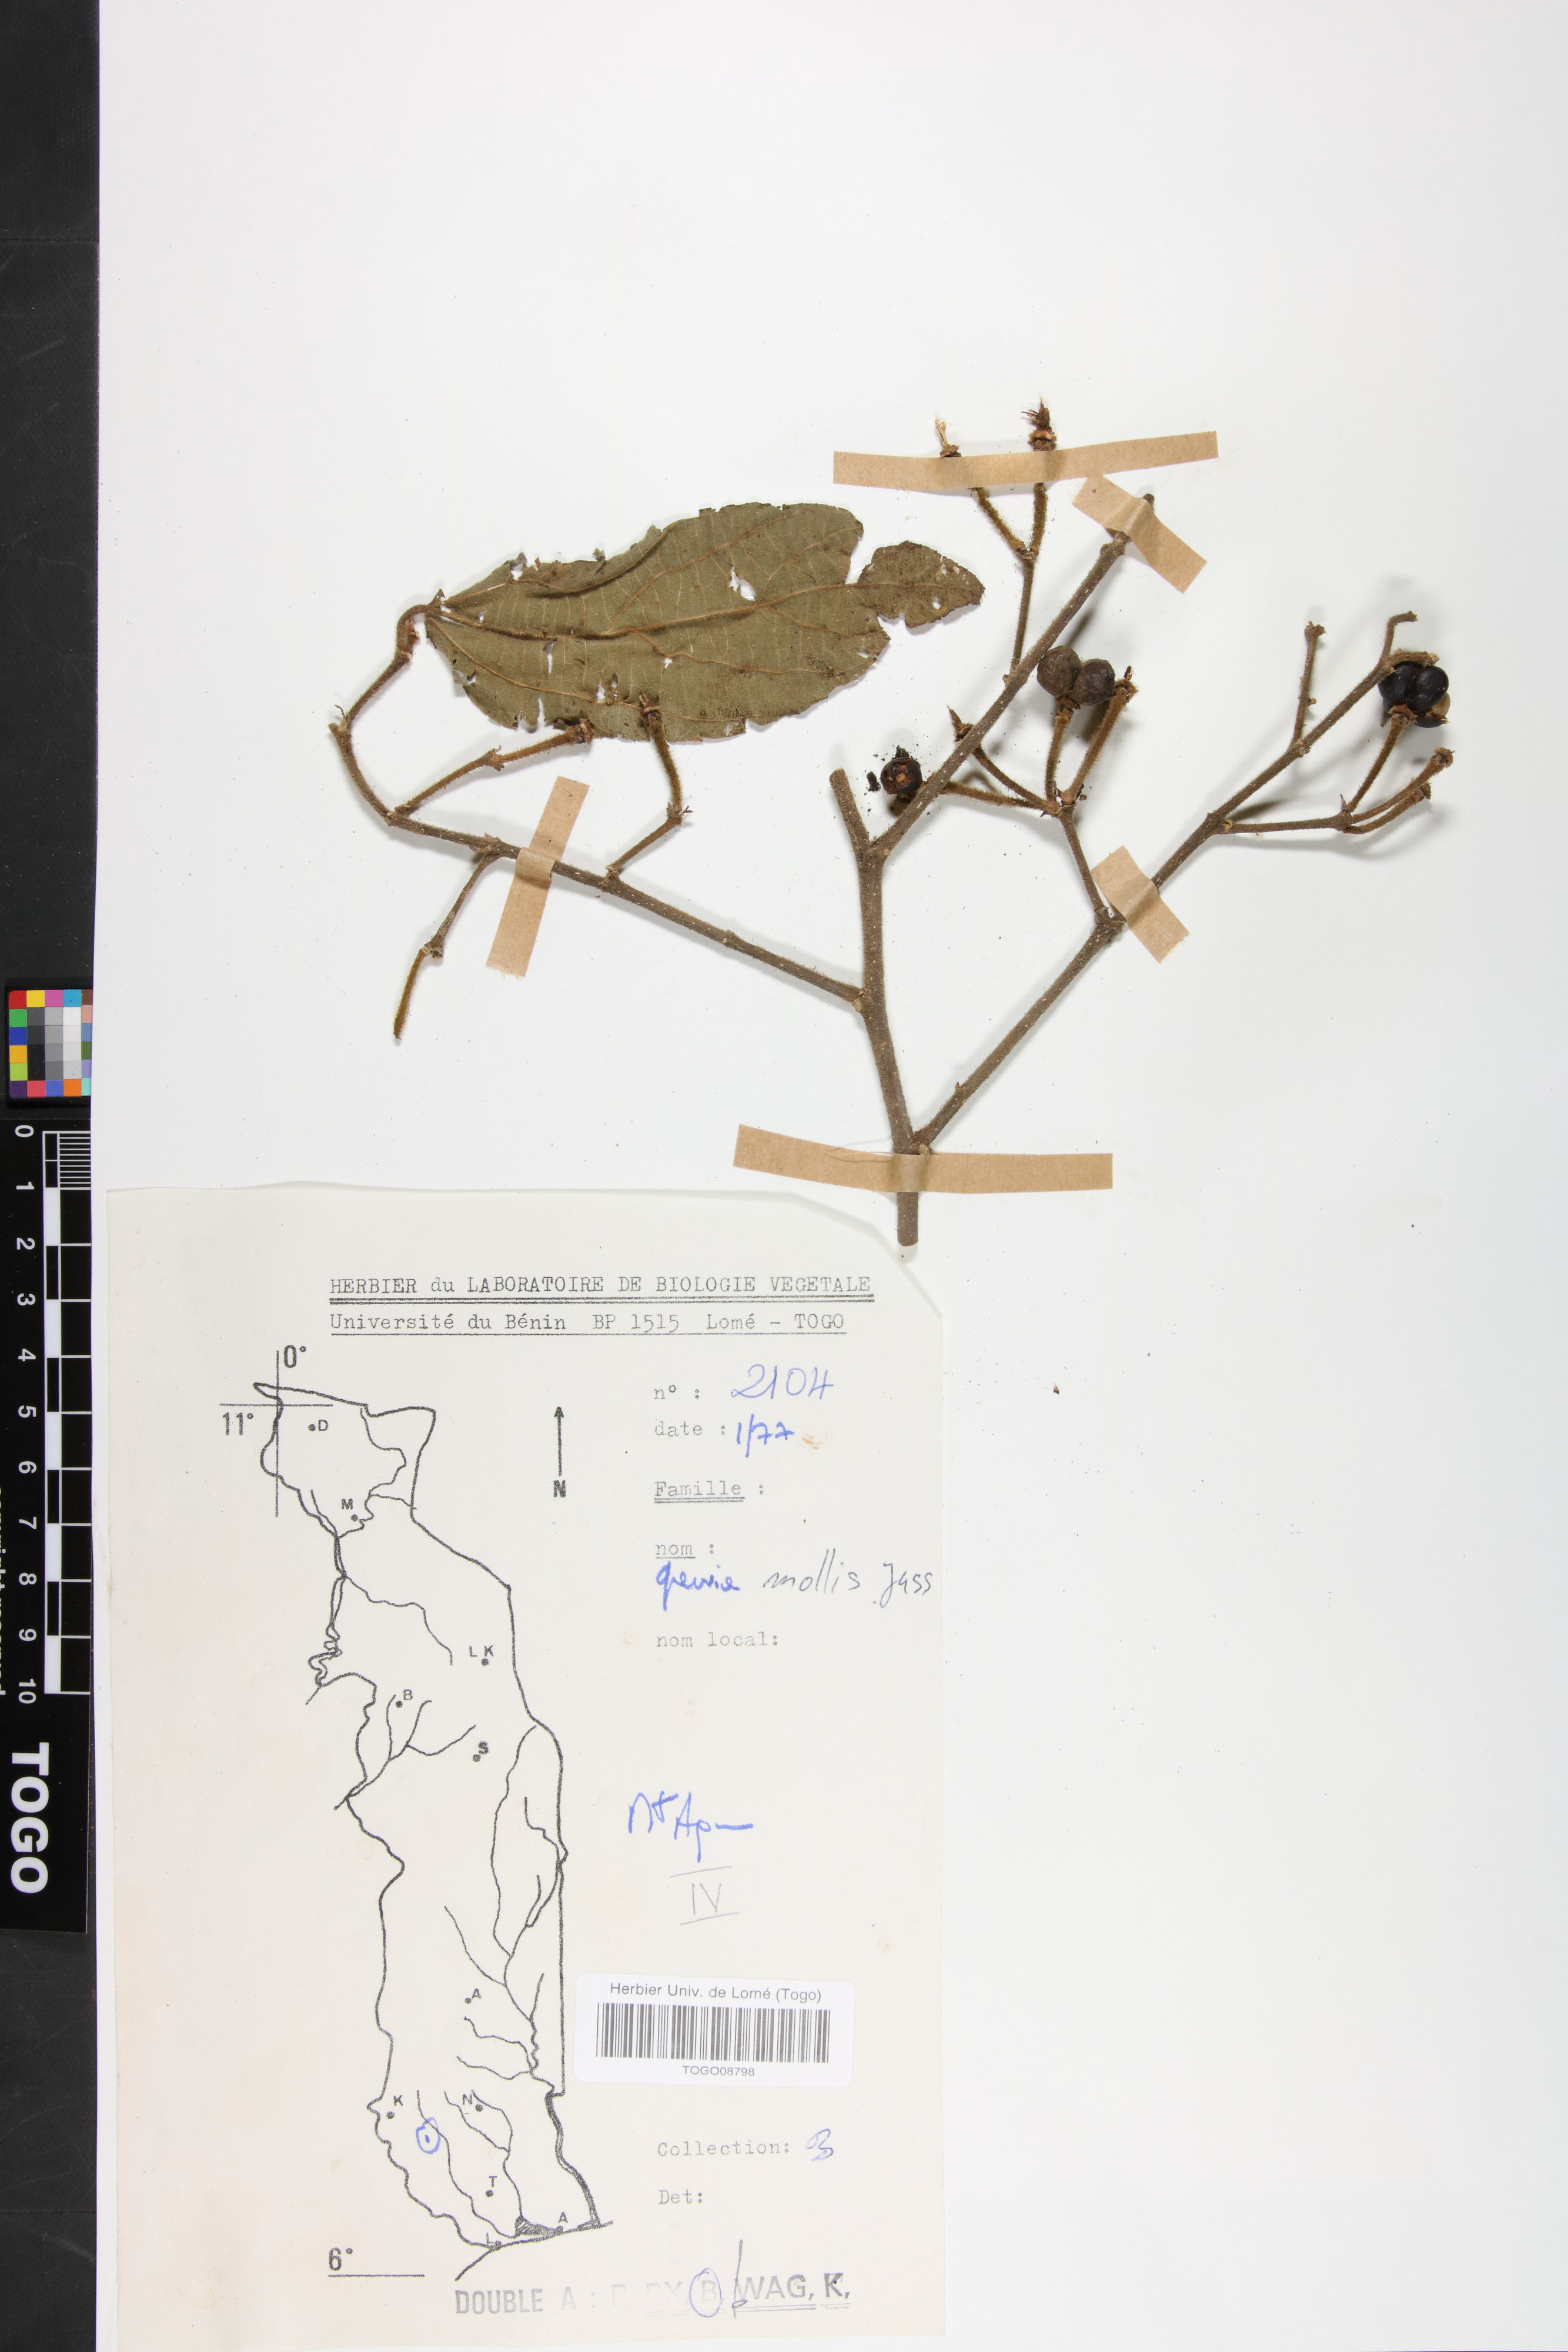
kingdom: Plantae
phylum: Tracheophyta
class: Magnoliopsida
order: Malvales
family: Malvaceae
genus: Grewia
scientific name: Grewia mollis
